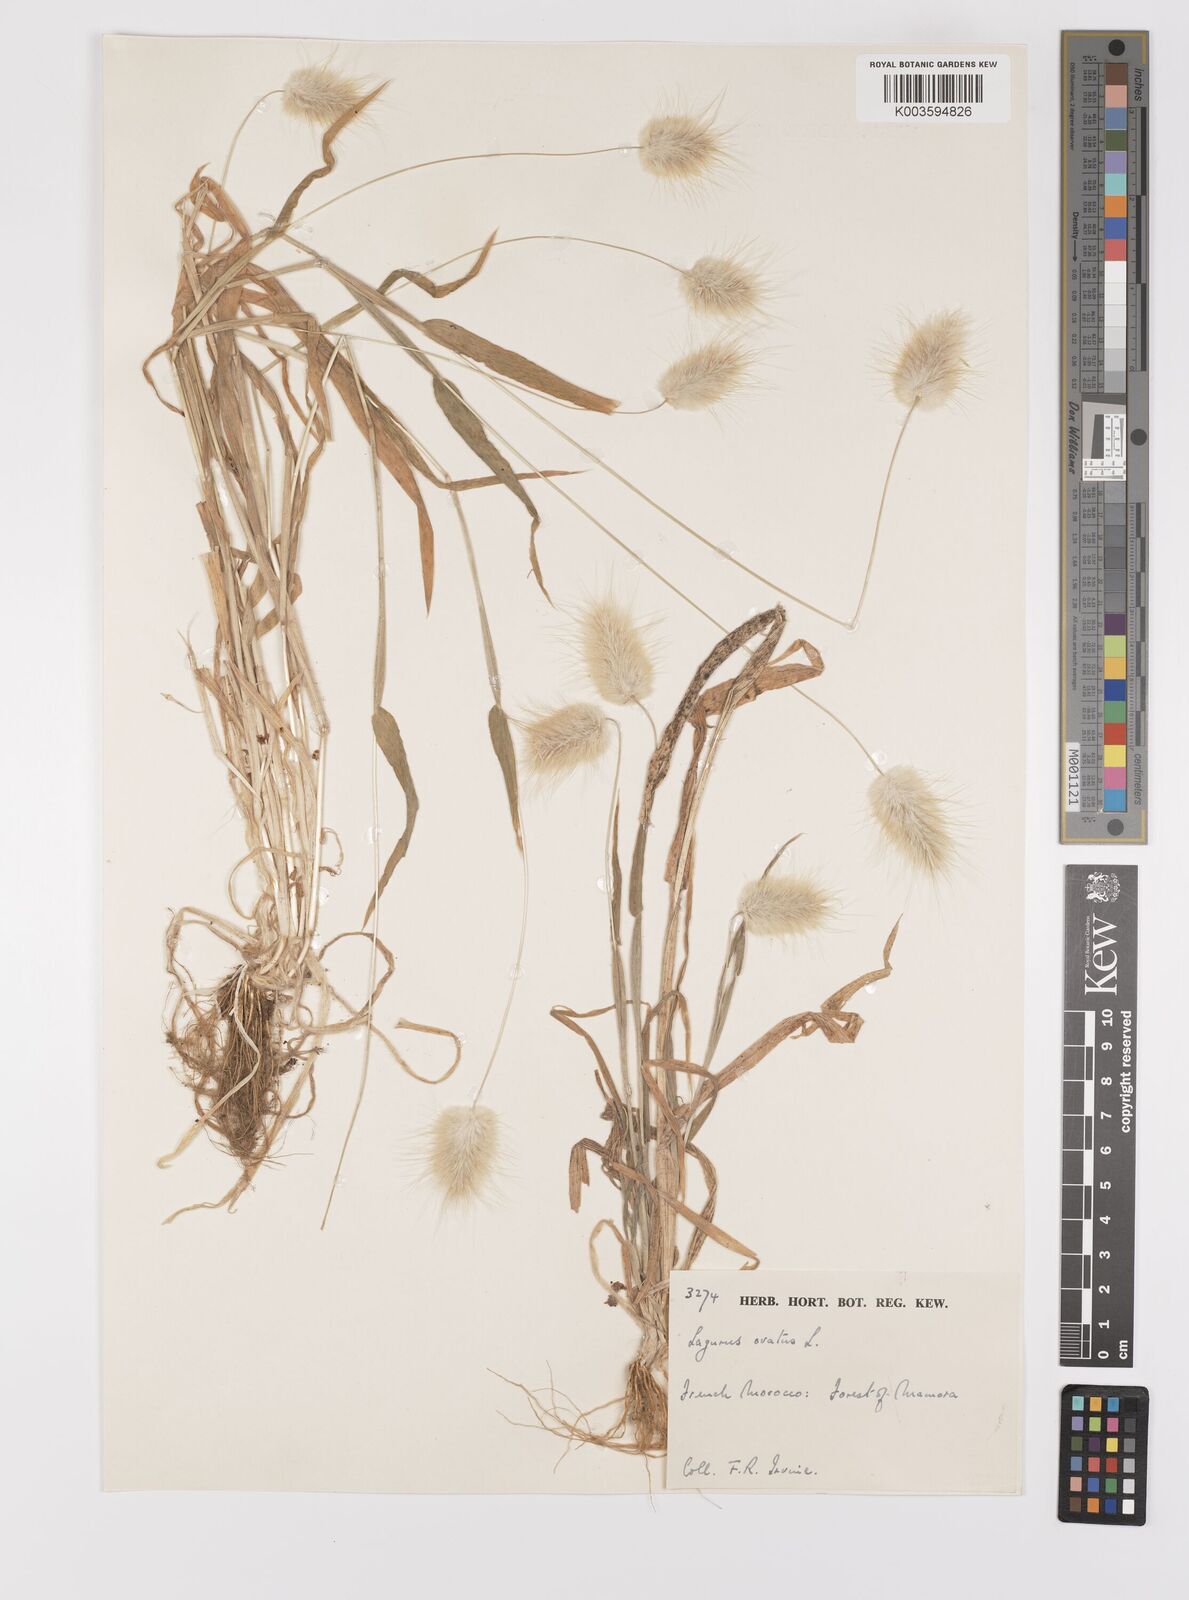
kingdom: Plantae
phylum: Tracheophyta
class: Liliopsida
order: Poales
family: Poaceae
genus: Lagurus
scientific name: Lagurus ovatus
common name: Hare's-tail
